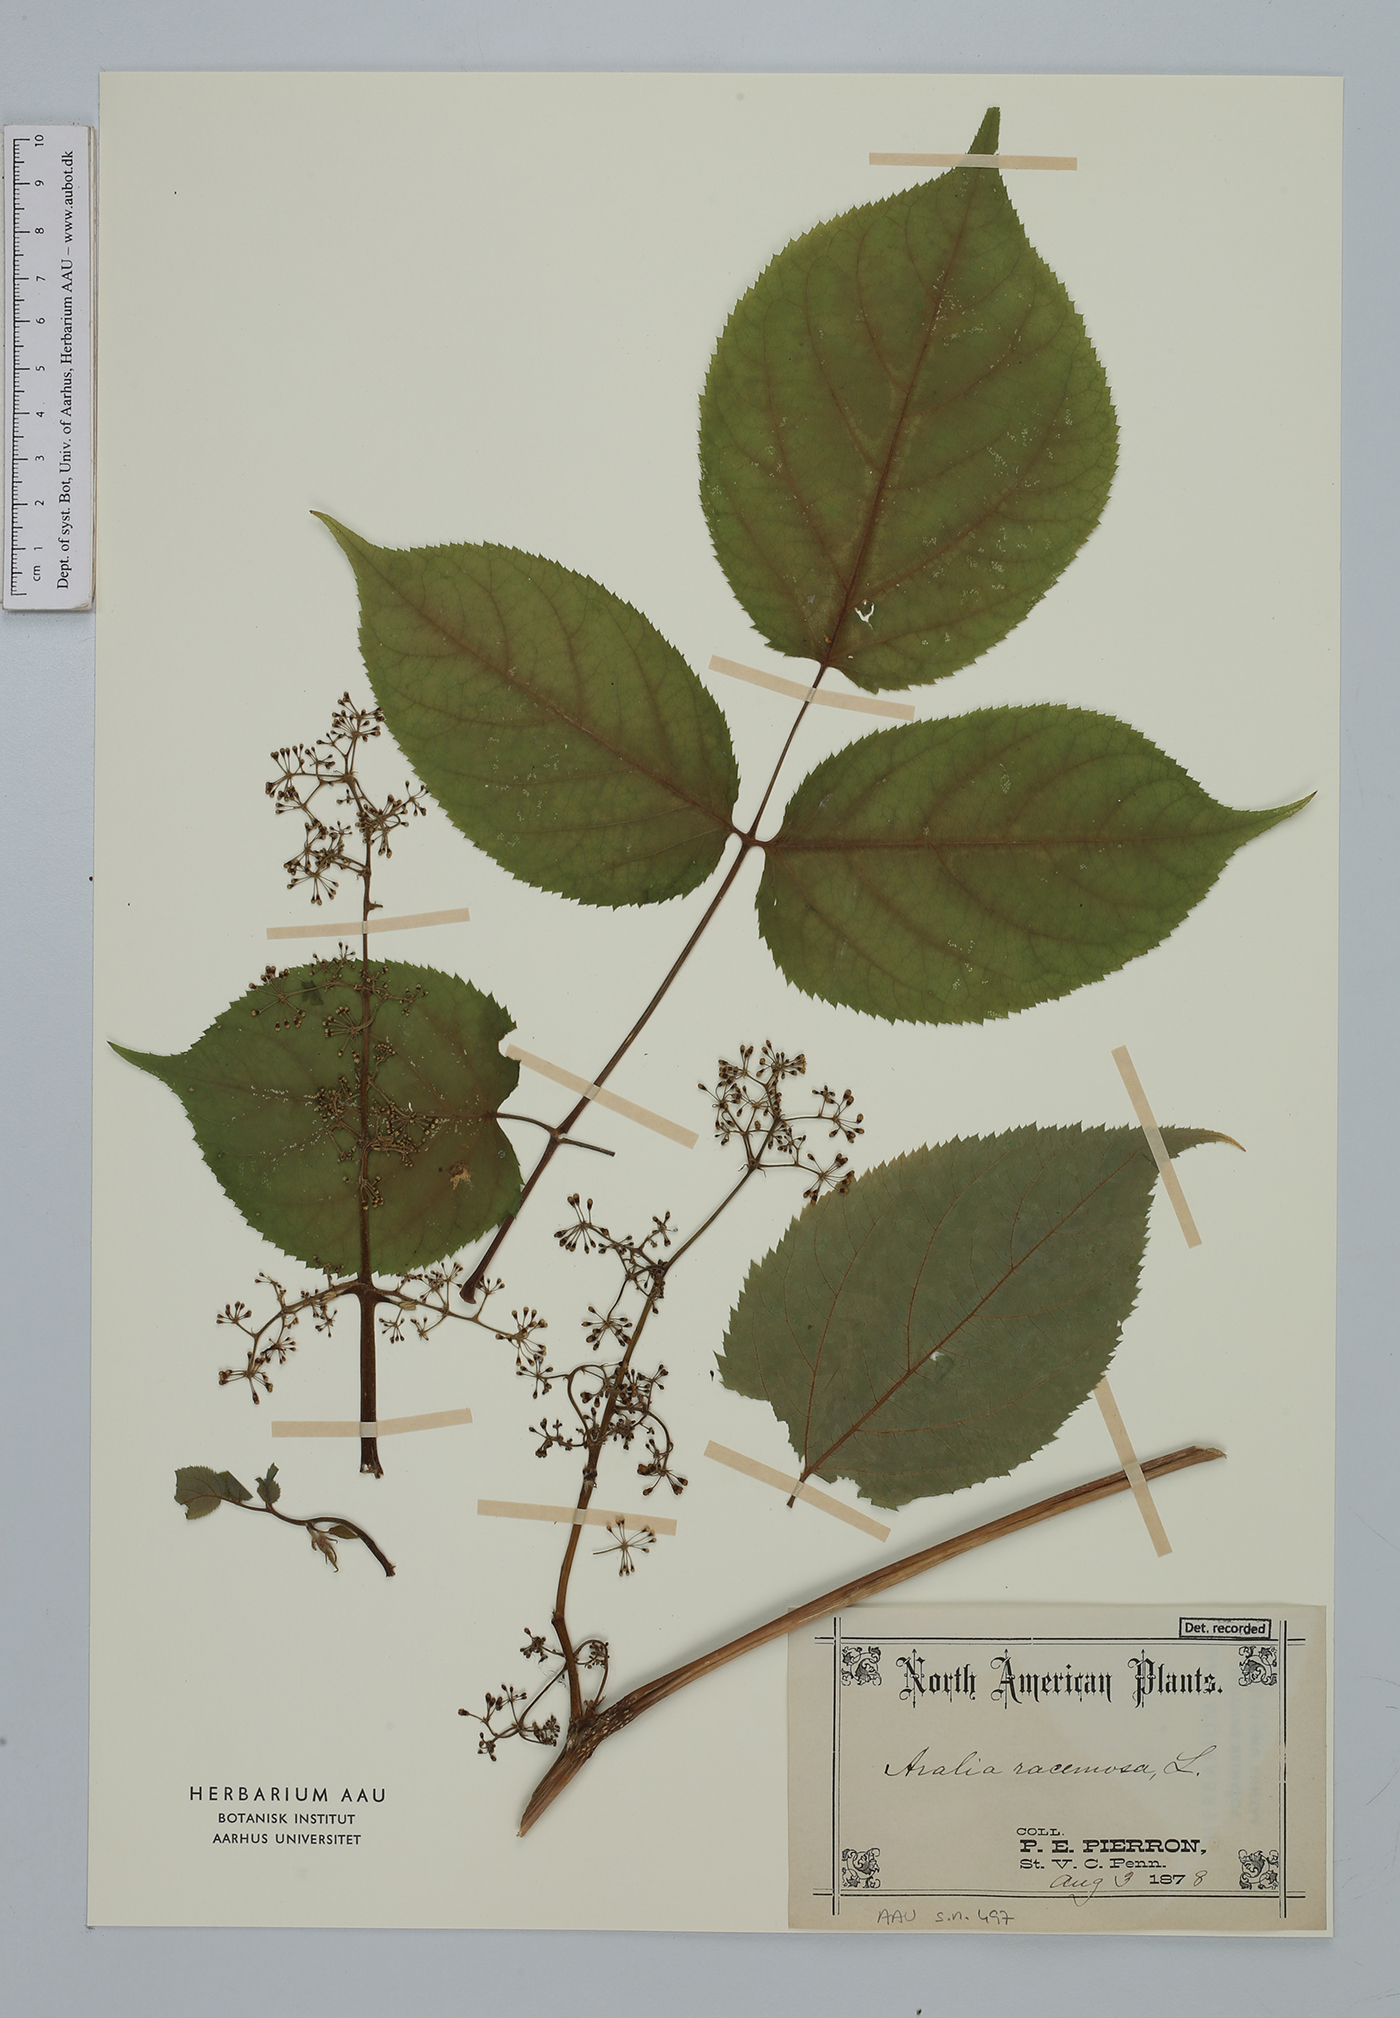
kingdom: Plantae
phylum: Tracheophyta
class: Magnoliopsida
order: Apiales
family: Araliaceae
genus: Aralia
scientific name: Aralia racemosa
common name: American-spikenard
